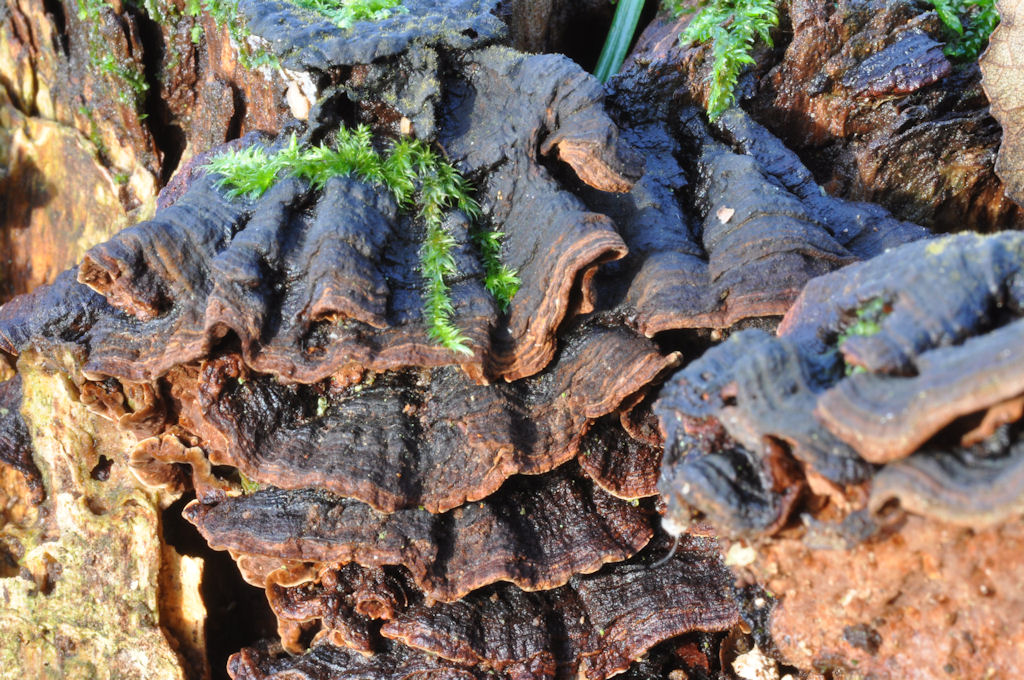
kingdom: Fungi
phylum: Basidiomycota
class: Agaricomycetes
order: Hymenochaetales
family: Hymenochaetaceae
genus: Hymenochaete
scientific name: Hymenochaete rubiginosa
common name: stiv ruslædersvamp
